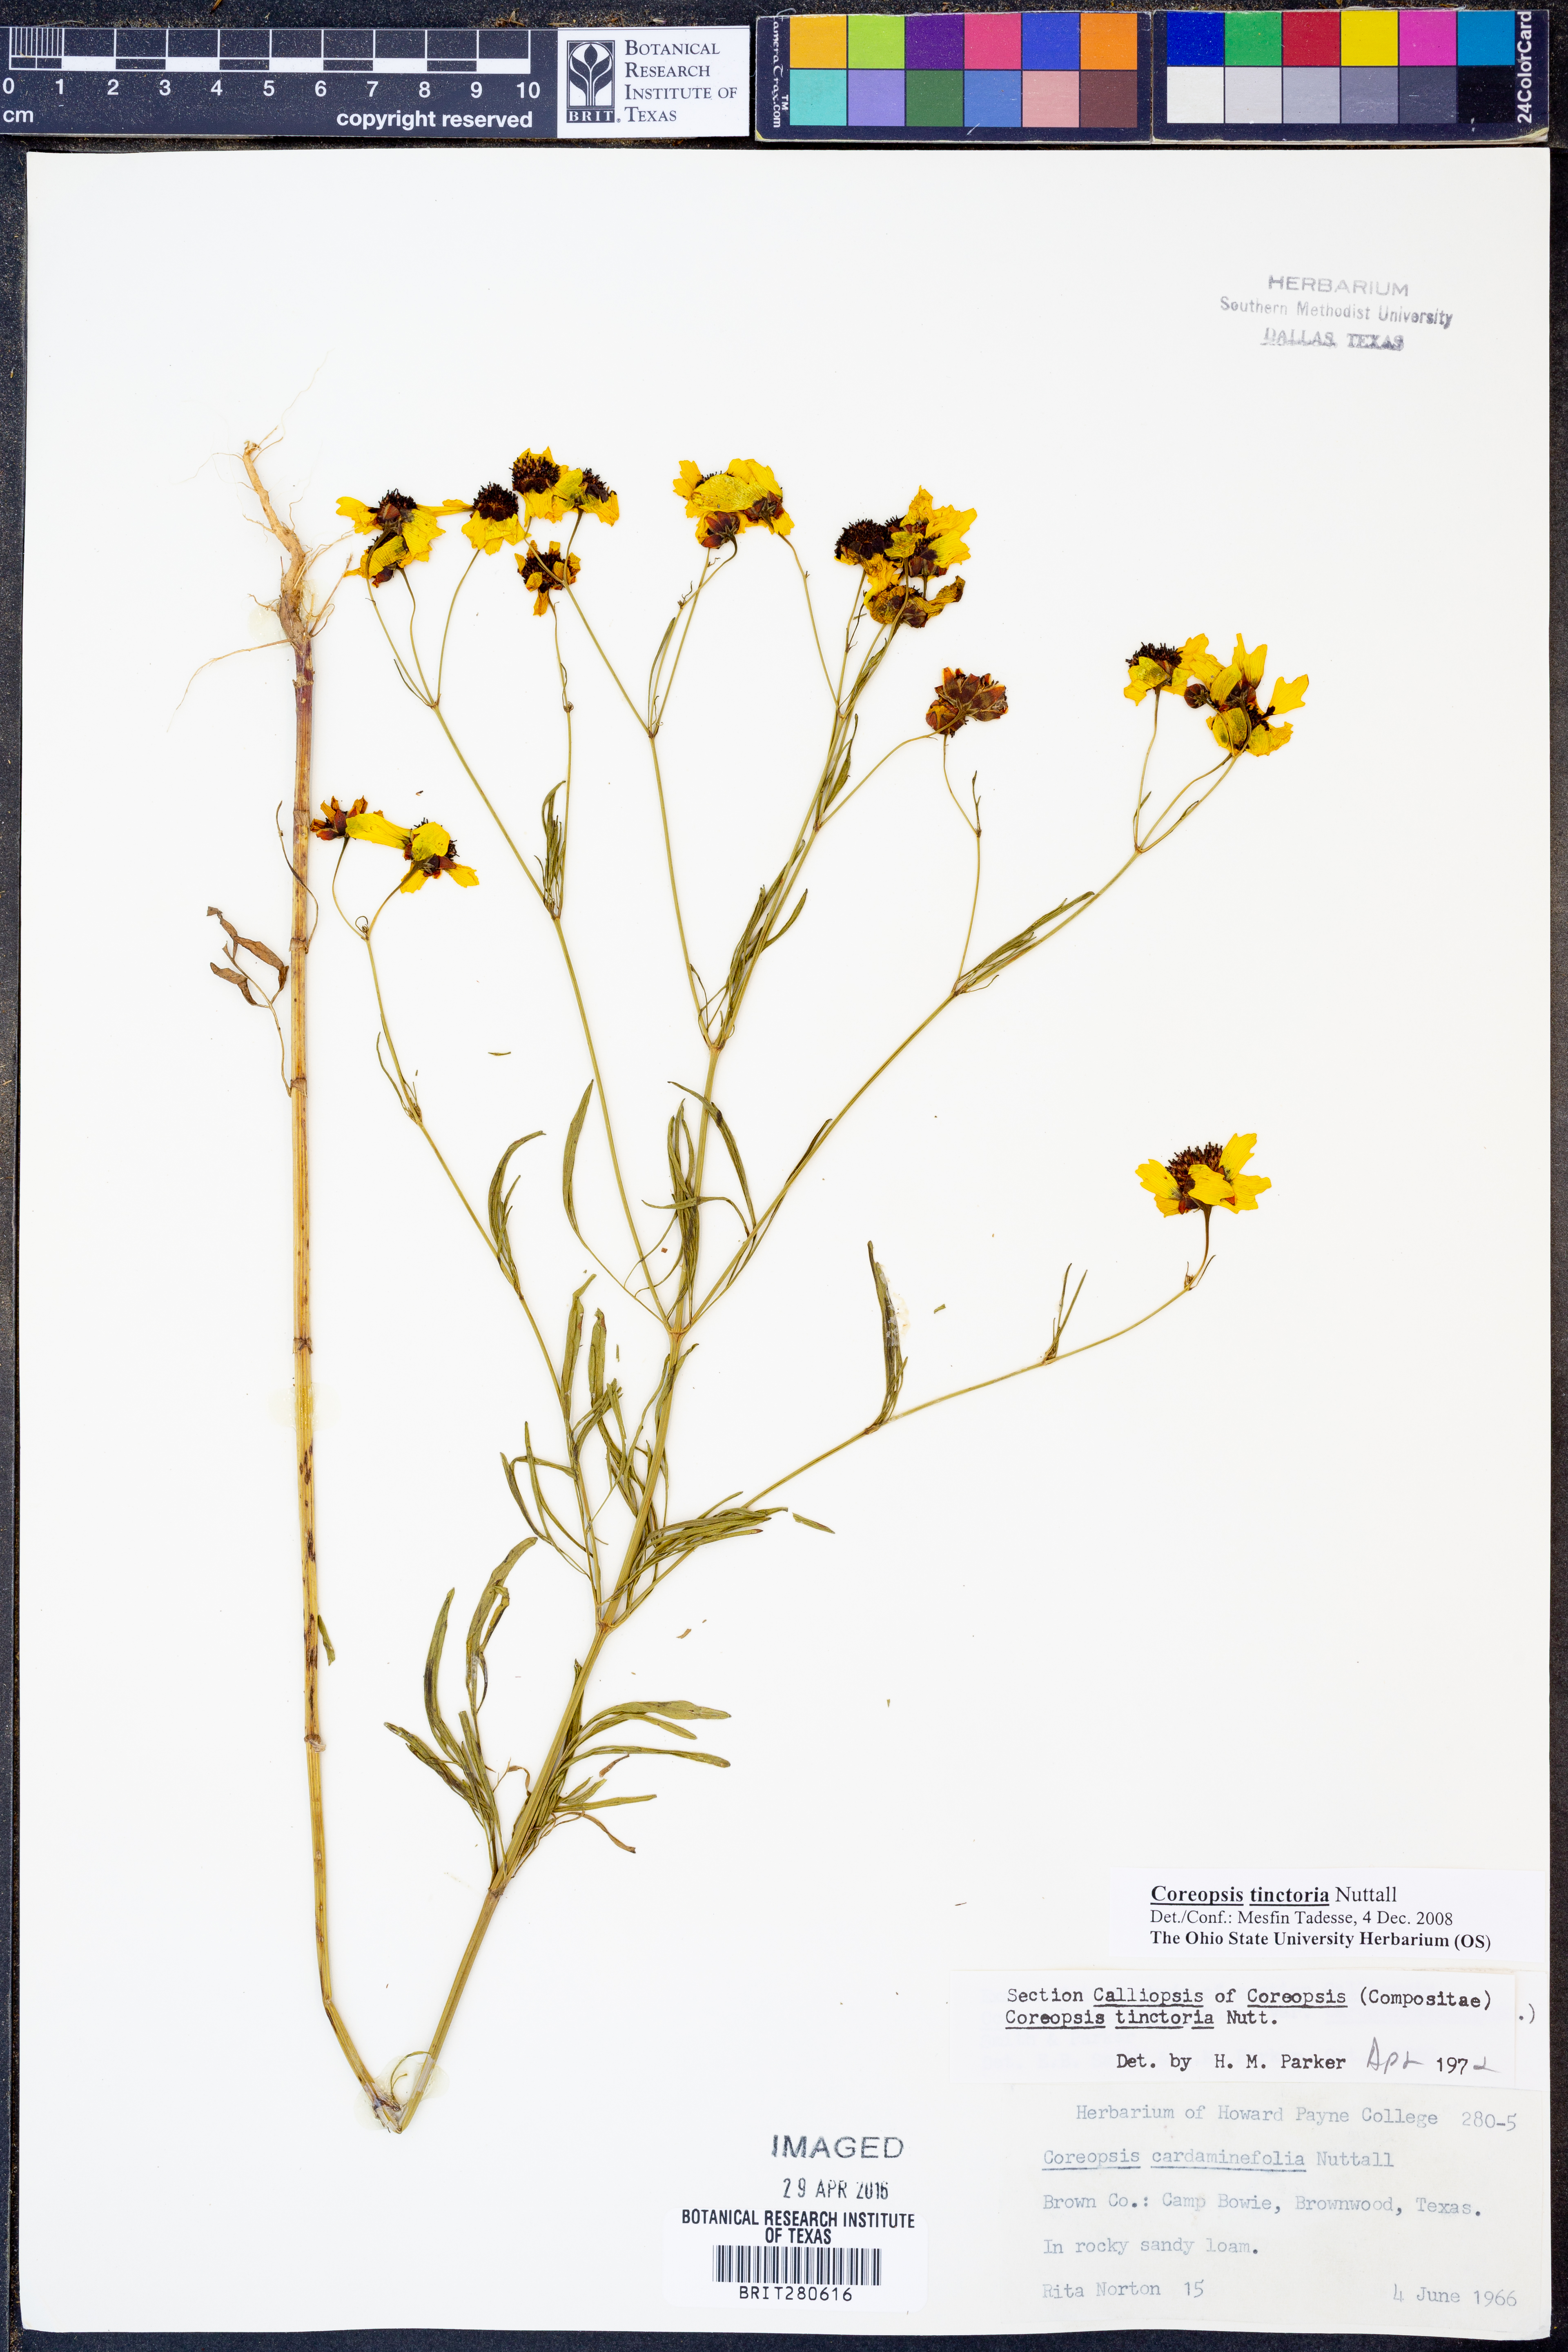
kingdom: Plantae
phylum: Tracheophyta
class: Magnoliopsida
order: Asterales
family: Asteraceae
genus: Coreopsis
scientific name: Coreopsis tinctoria
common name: Garden tickseed
